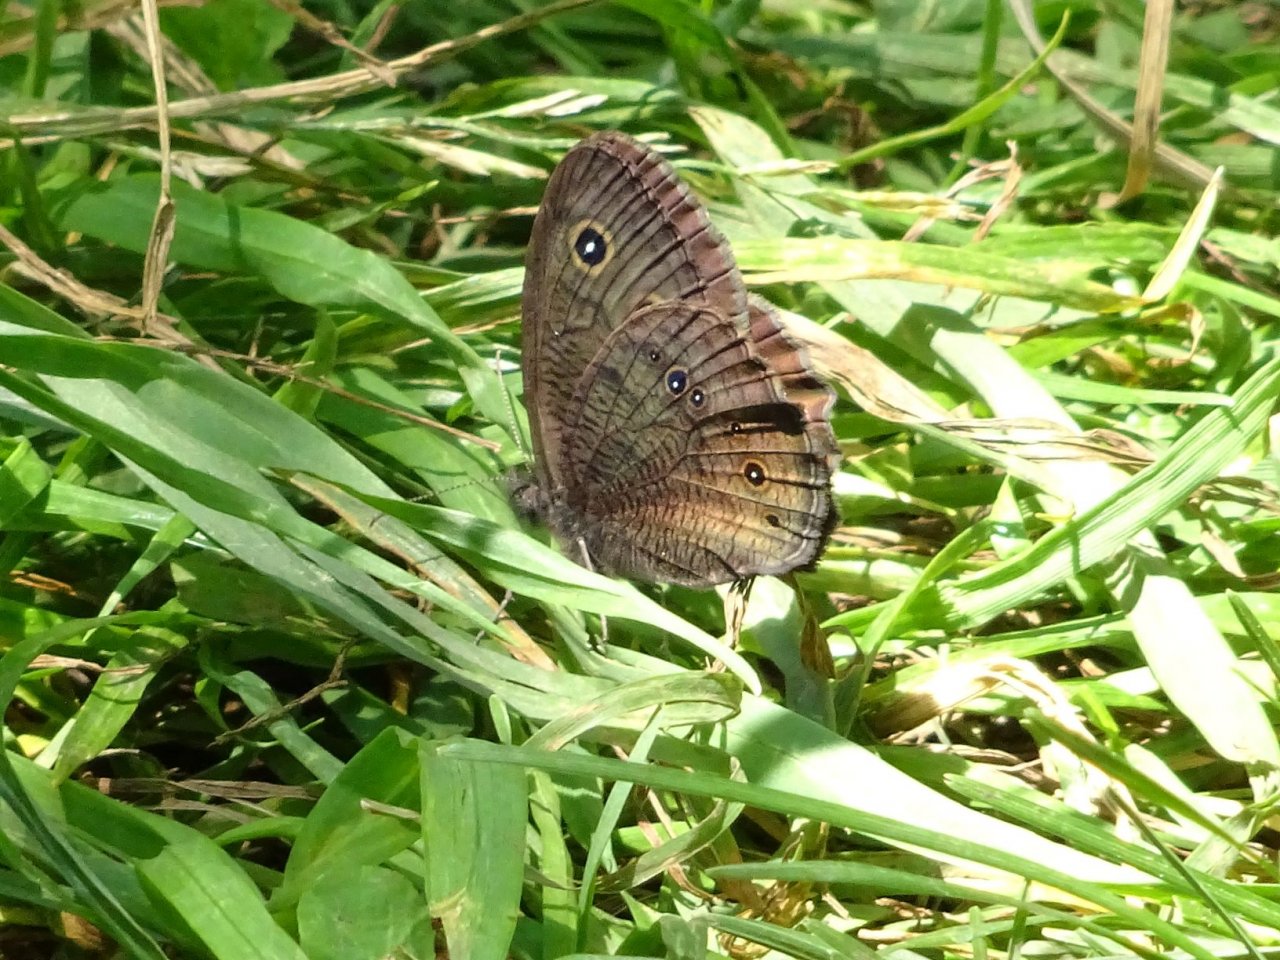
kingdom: Animalia
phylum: Arthropoda
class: Insecta
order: Lepidoptera
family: Nymphalidae
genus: Cercyonis
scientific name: Cercyonis pegala
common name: Common Wood-Nymph
